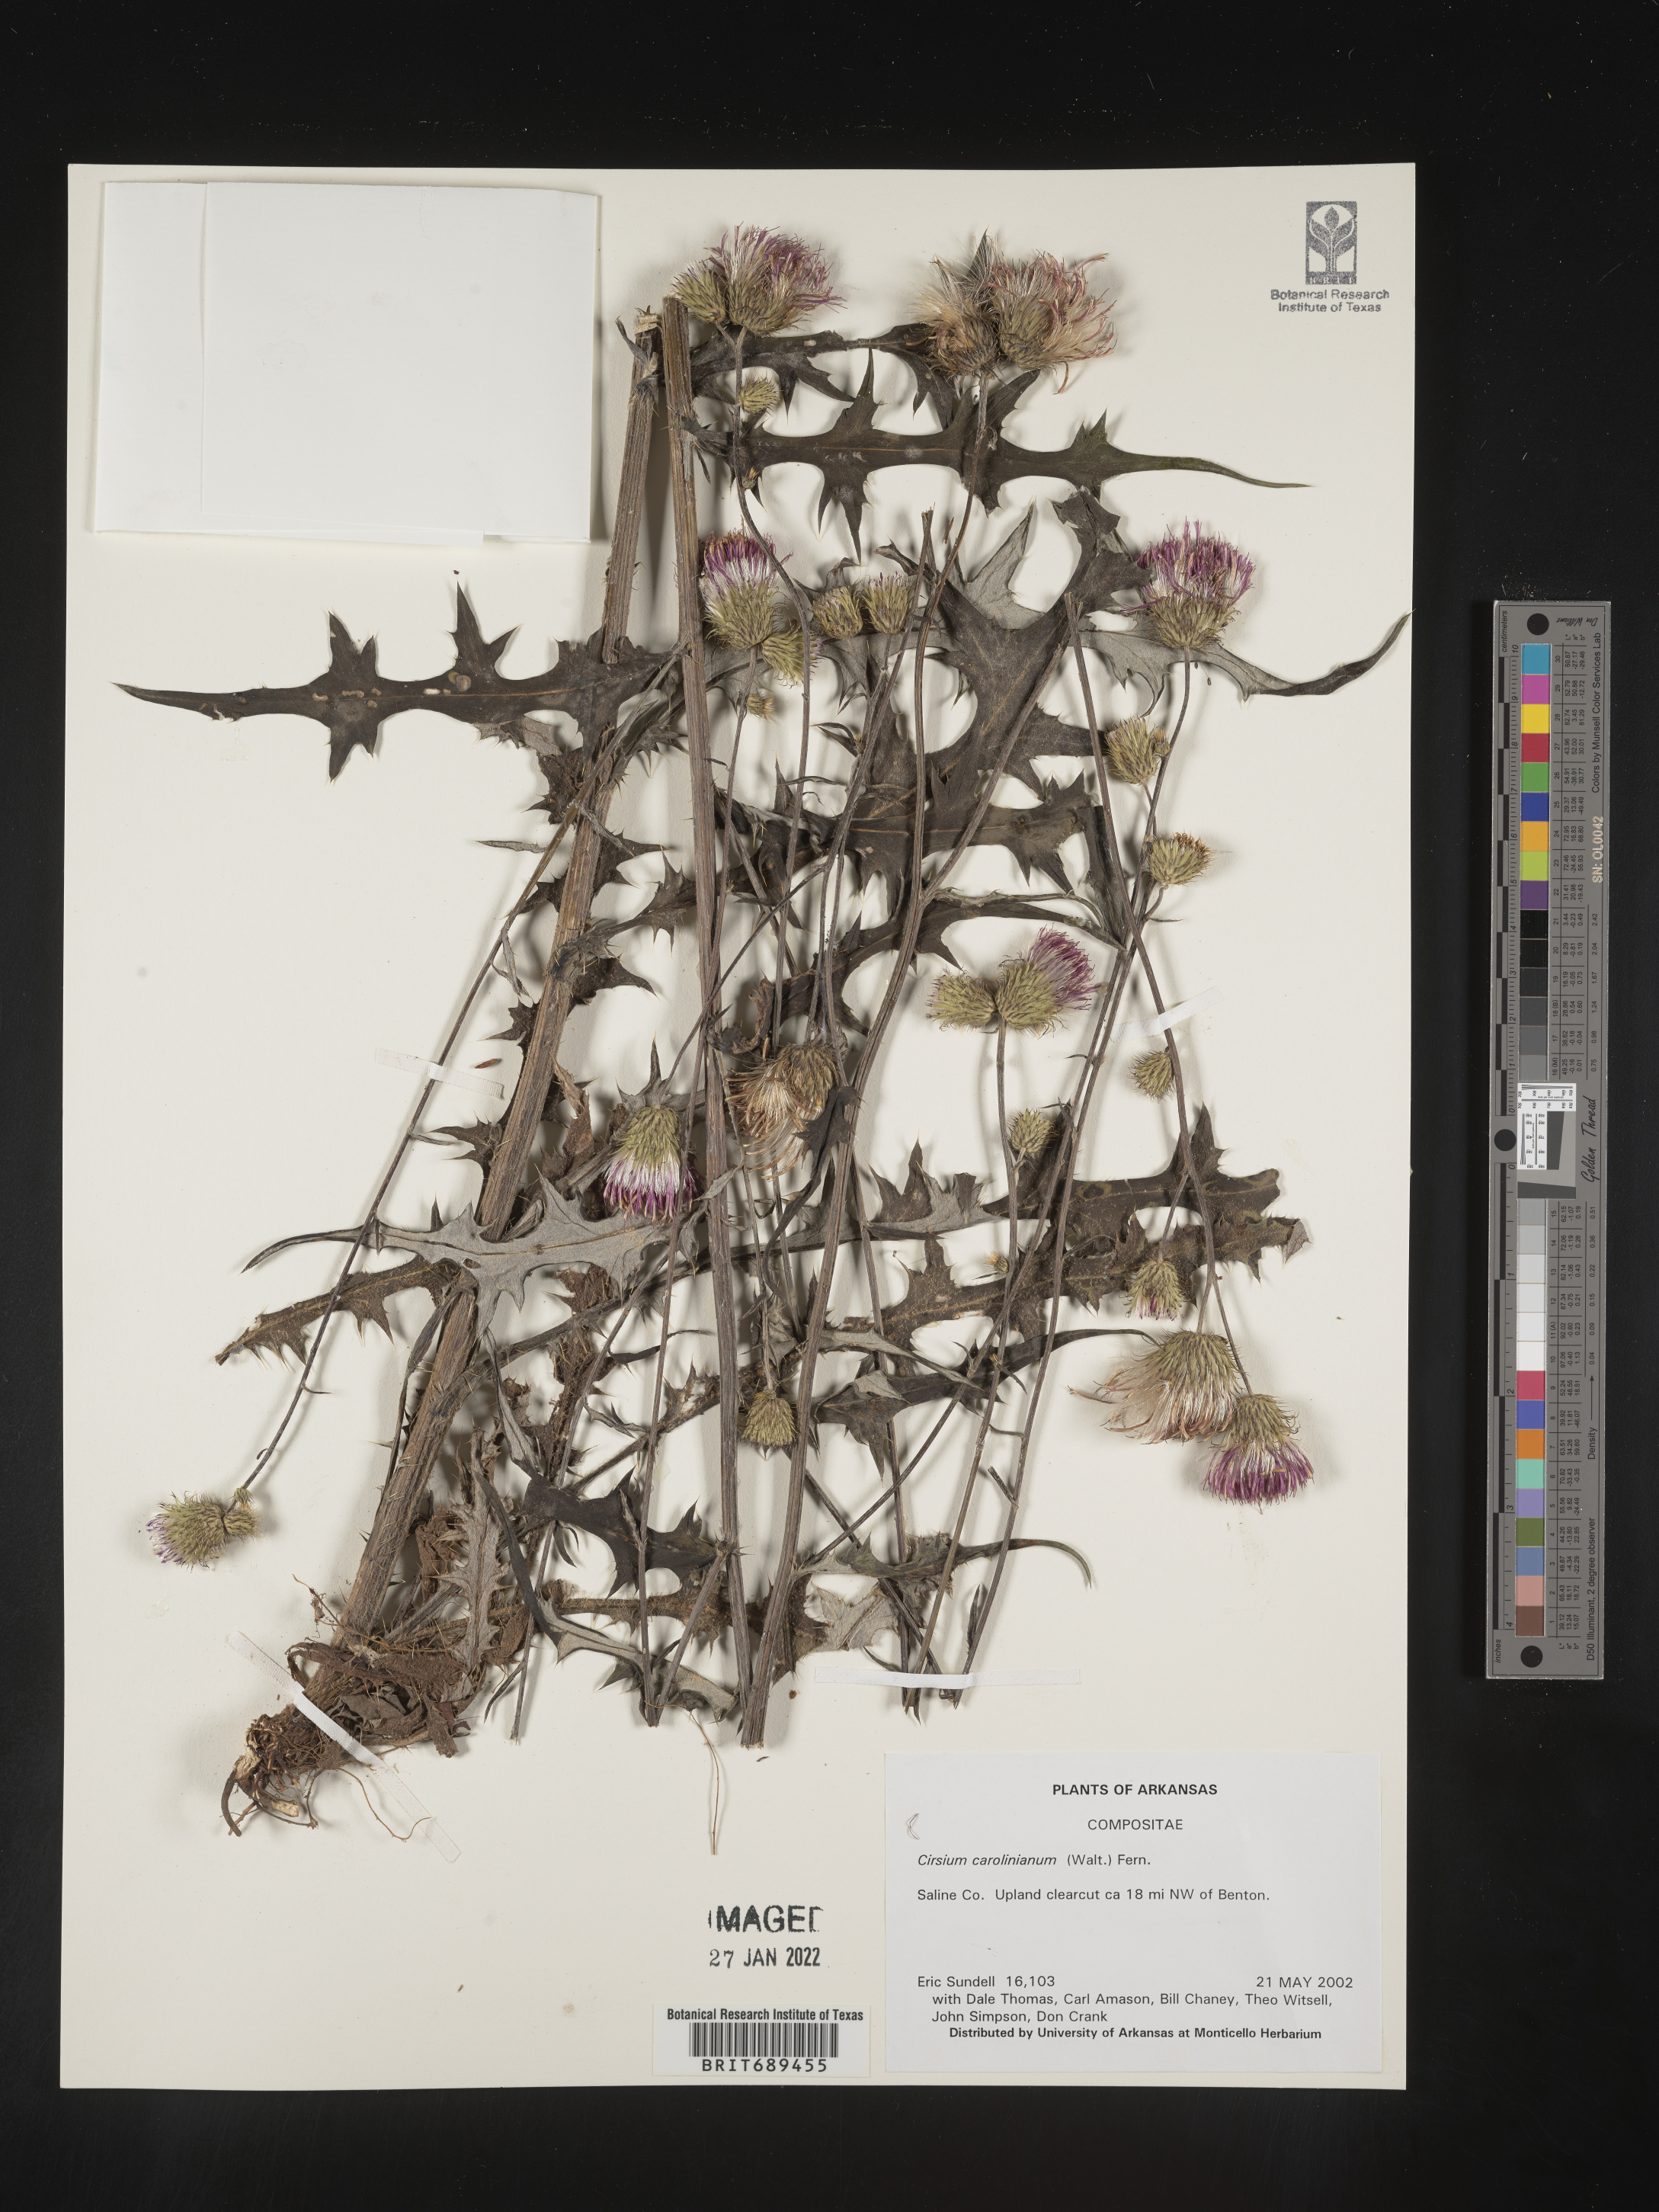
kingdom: Plantae
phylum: Tracheophyta
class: Magnoliopsida
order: Asterales
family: Asteraceae
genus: Cirsium
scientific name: Cirsium carolinianum
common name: Carolina thistle
